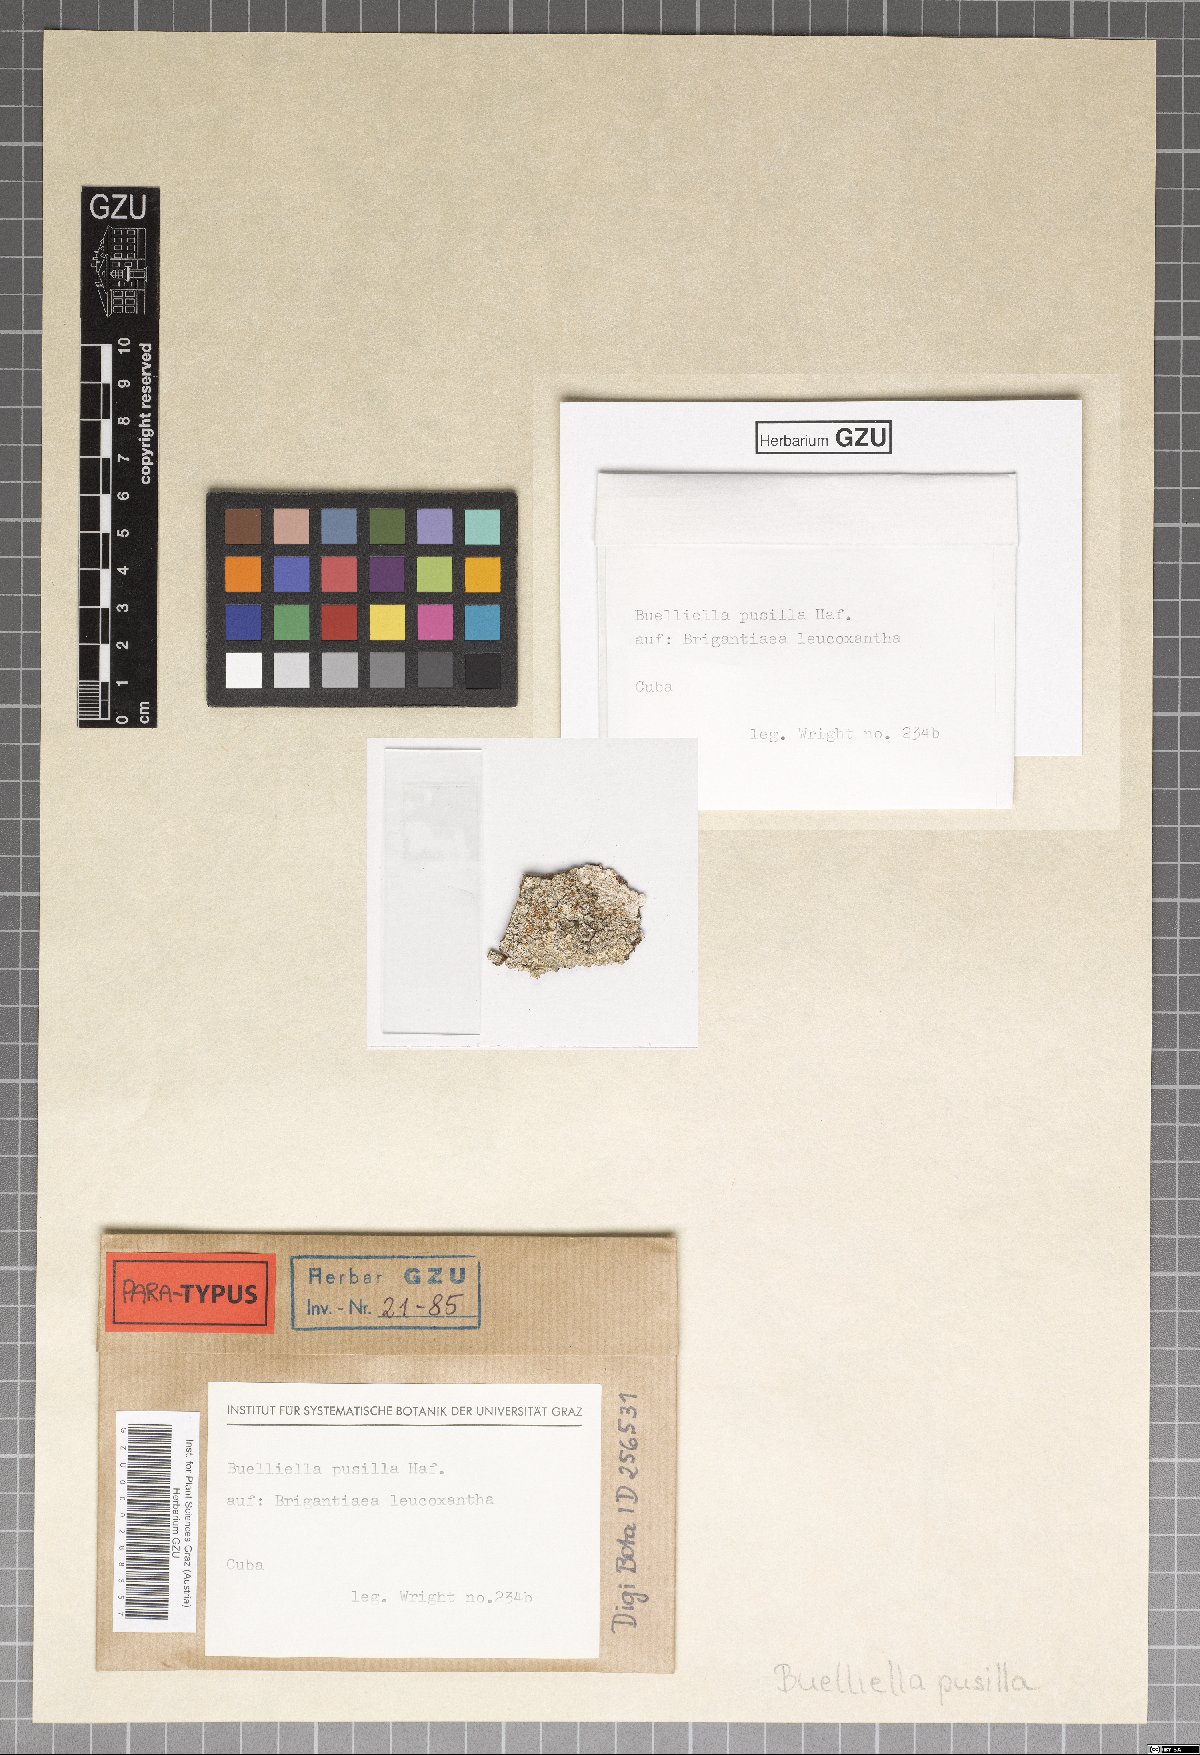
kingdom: Fungi
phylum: Ascomycota
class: Dothideomycetes
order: Dothideales
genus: Buelliella
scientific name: Buelliella pusilla
